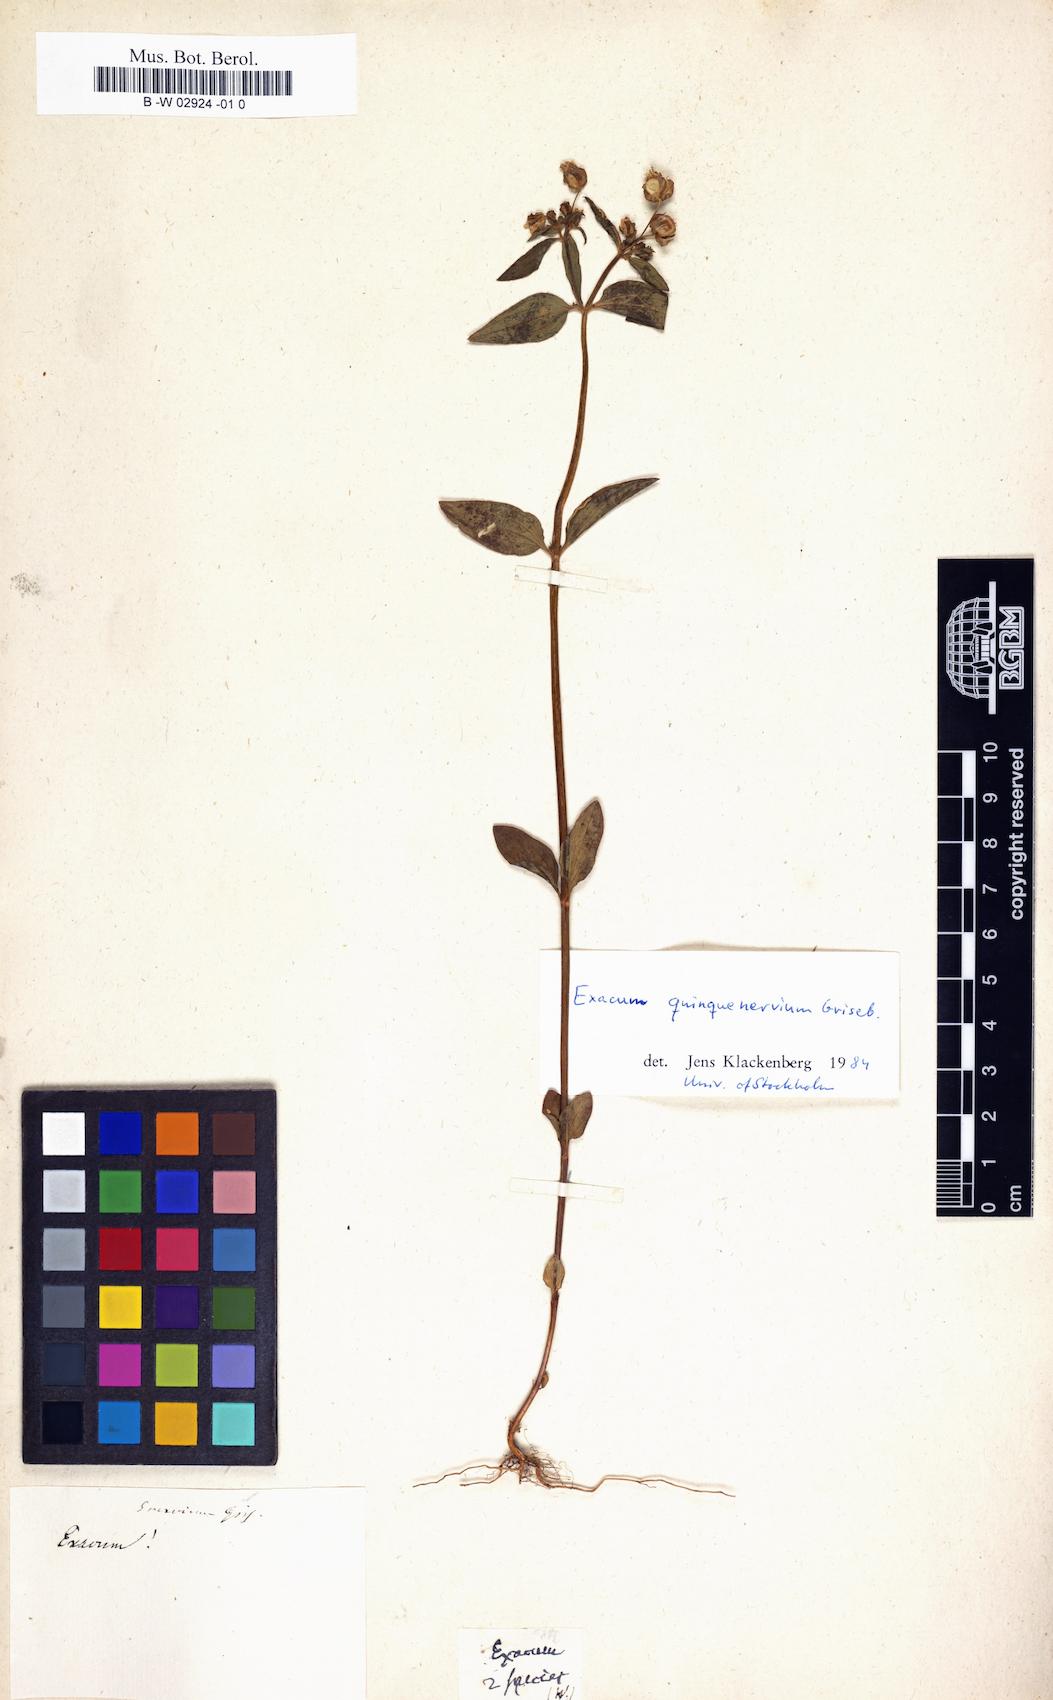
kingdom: Plantae
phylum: Tracheophyta
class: Magnoliopsida
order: Gentianales
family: Gentianaceae
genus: Exacum
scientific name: Exacum
